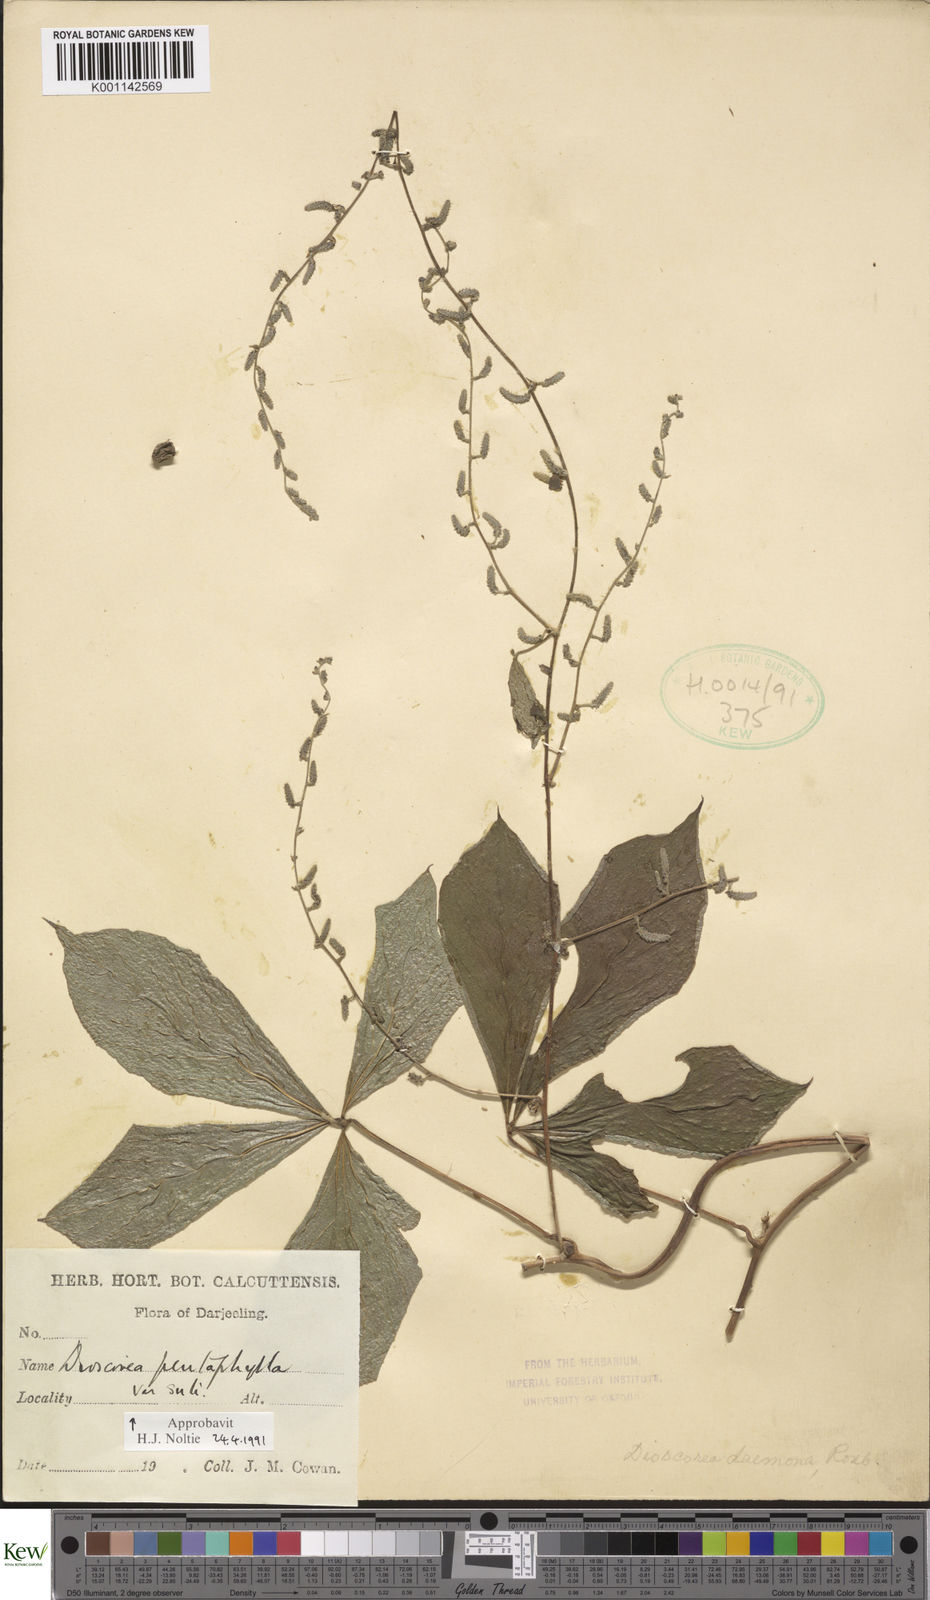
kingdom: Plantae
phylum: Tracheophyta
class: Liliopsida
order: Dioscoreales
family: Dioscoreaceae
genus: Dioscorea
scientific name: Dioscorea pentaphylla
